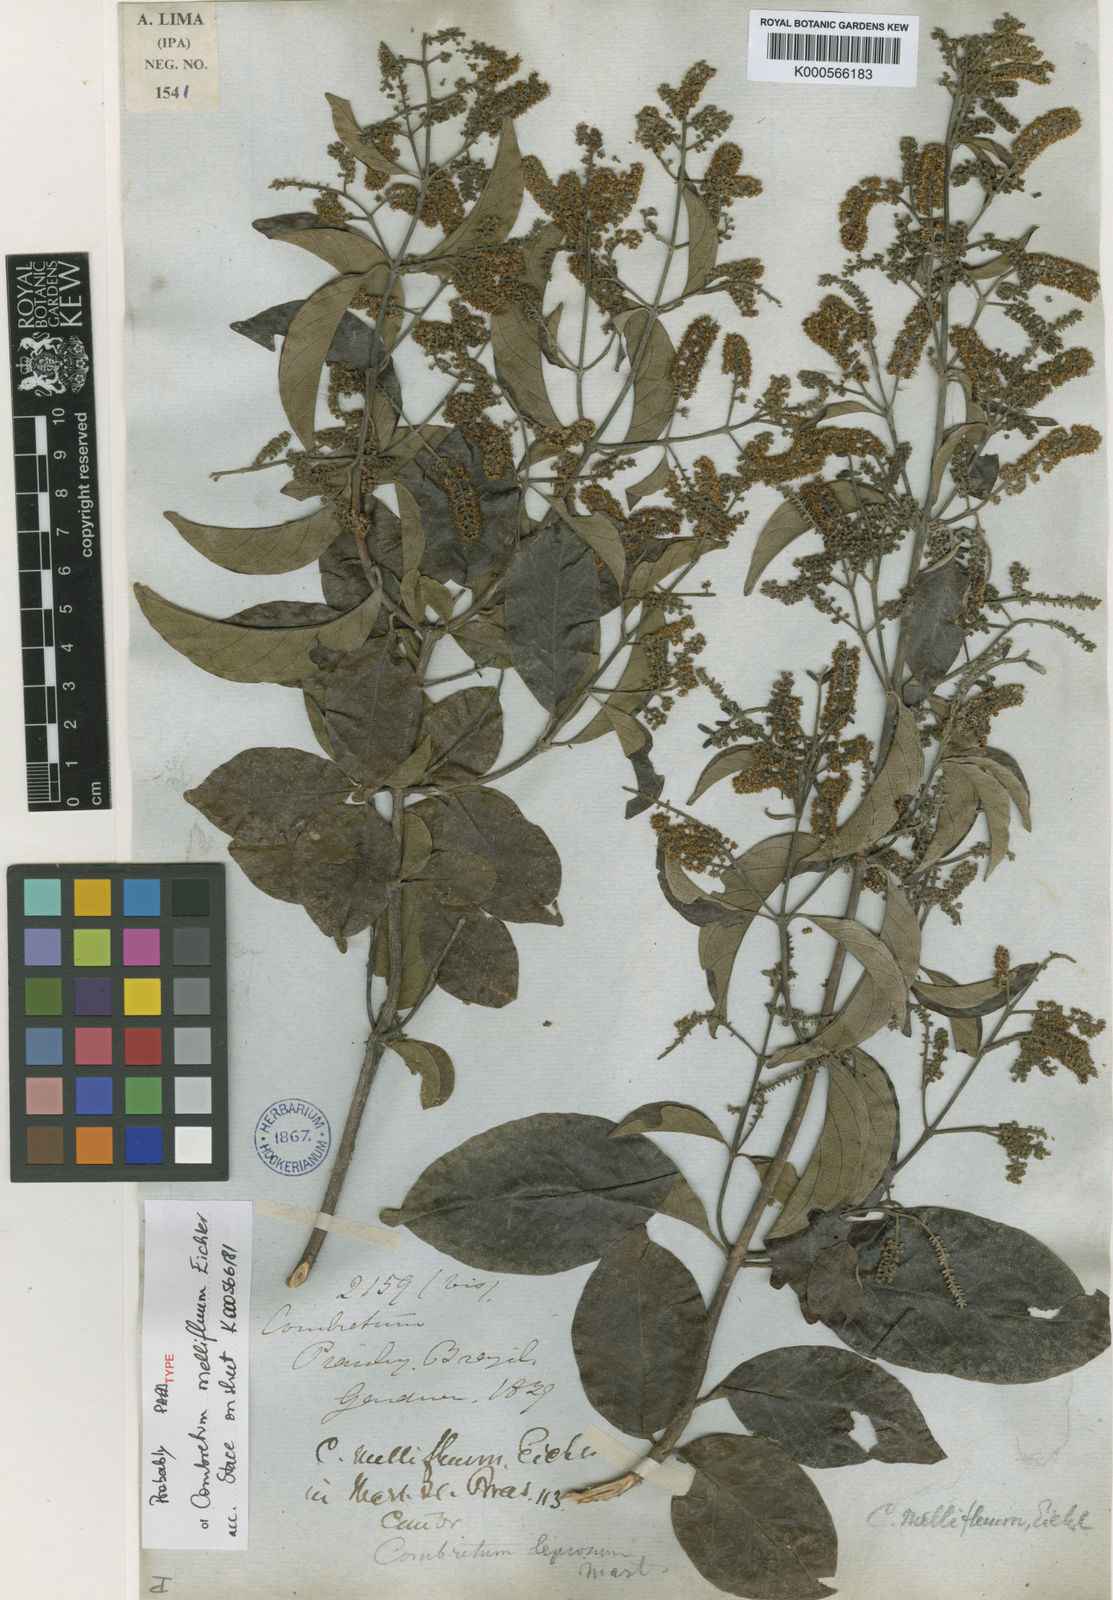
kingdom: Plantae
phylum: Tracheophyta
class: Magnoliopsida
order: Myrtales
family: Combretaceae
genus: Combretum
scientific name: Combretum mellifluum
